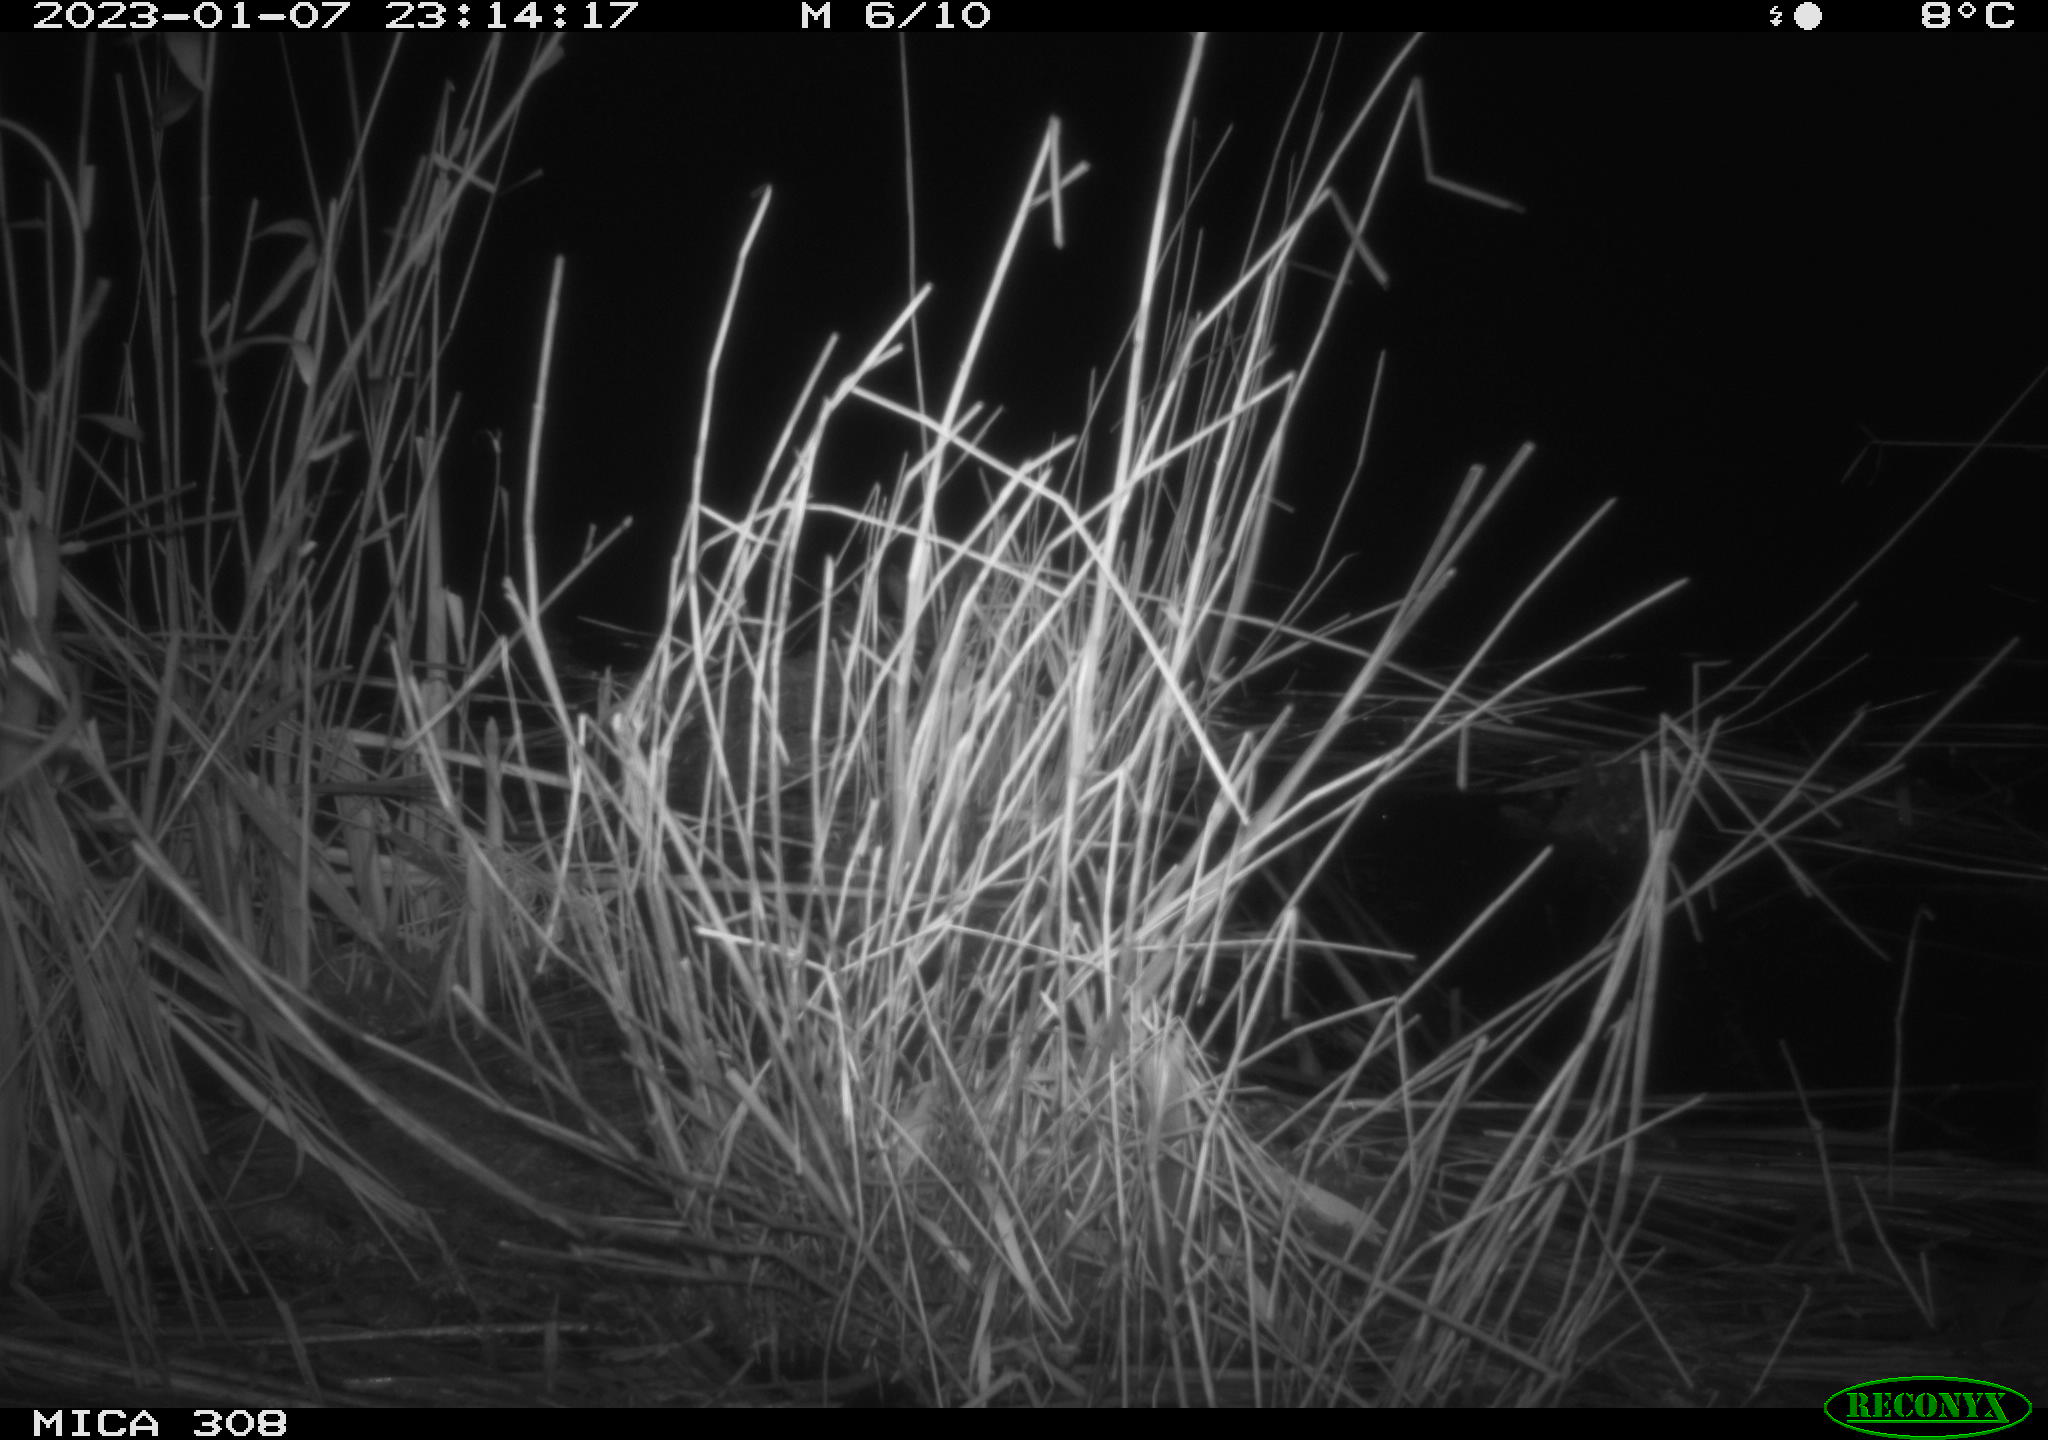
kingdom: Animalia
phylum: Chordata
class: Mammalia
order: Rodentia
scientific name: Rodentia
